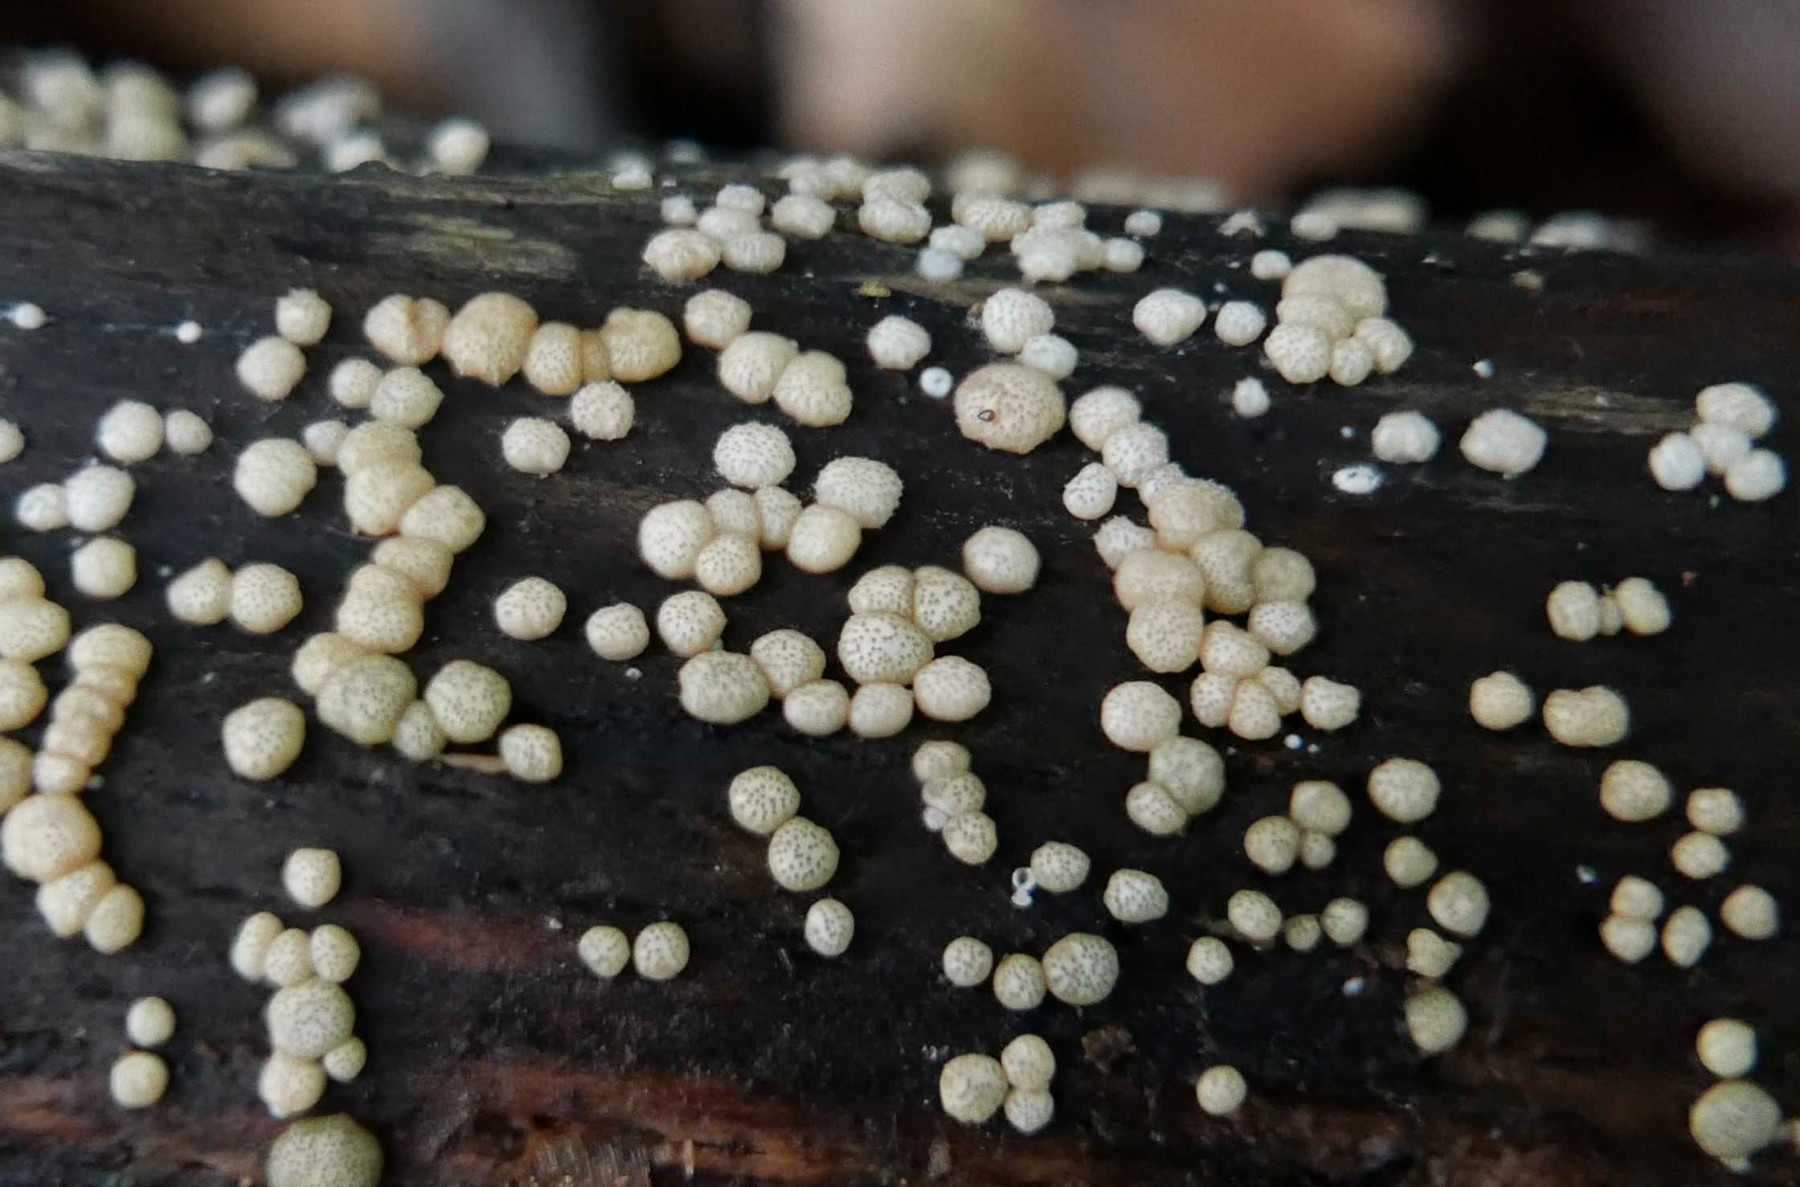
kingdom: Fungi
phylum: Ascomycota
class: Sordariomycetes
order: Hypocreales
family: Hypocreaceae
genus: Trichoderma
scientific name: Trichoderma strictipile
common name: grønprikket kødkerne
